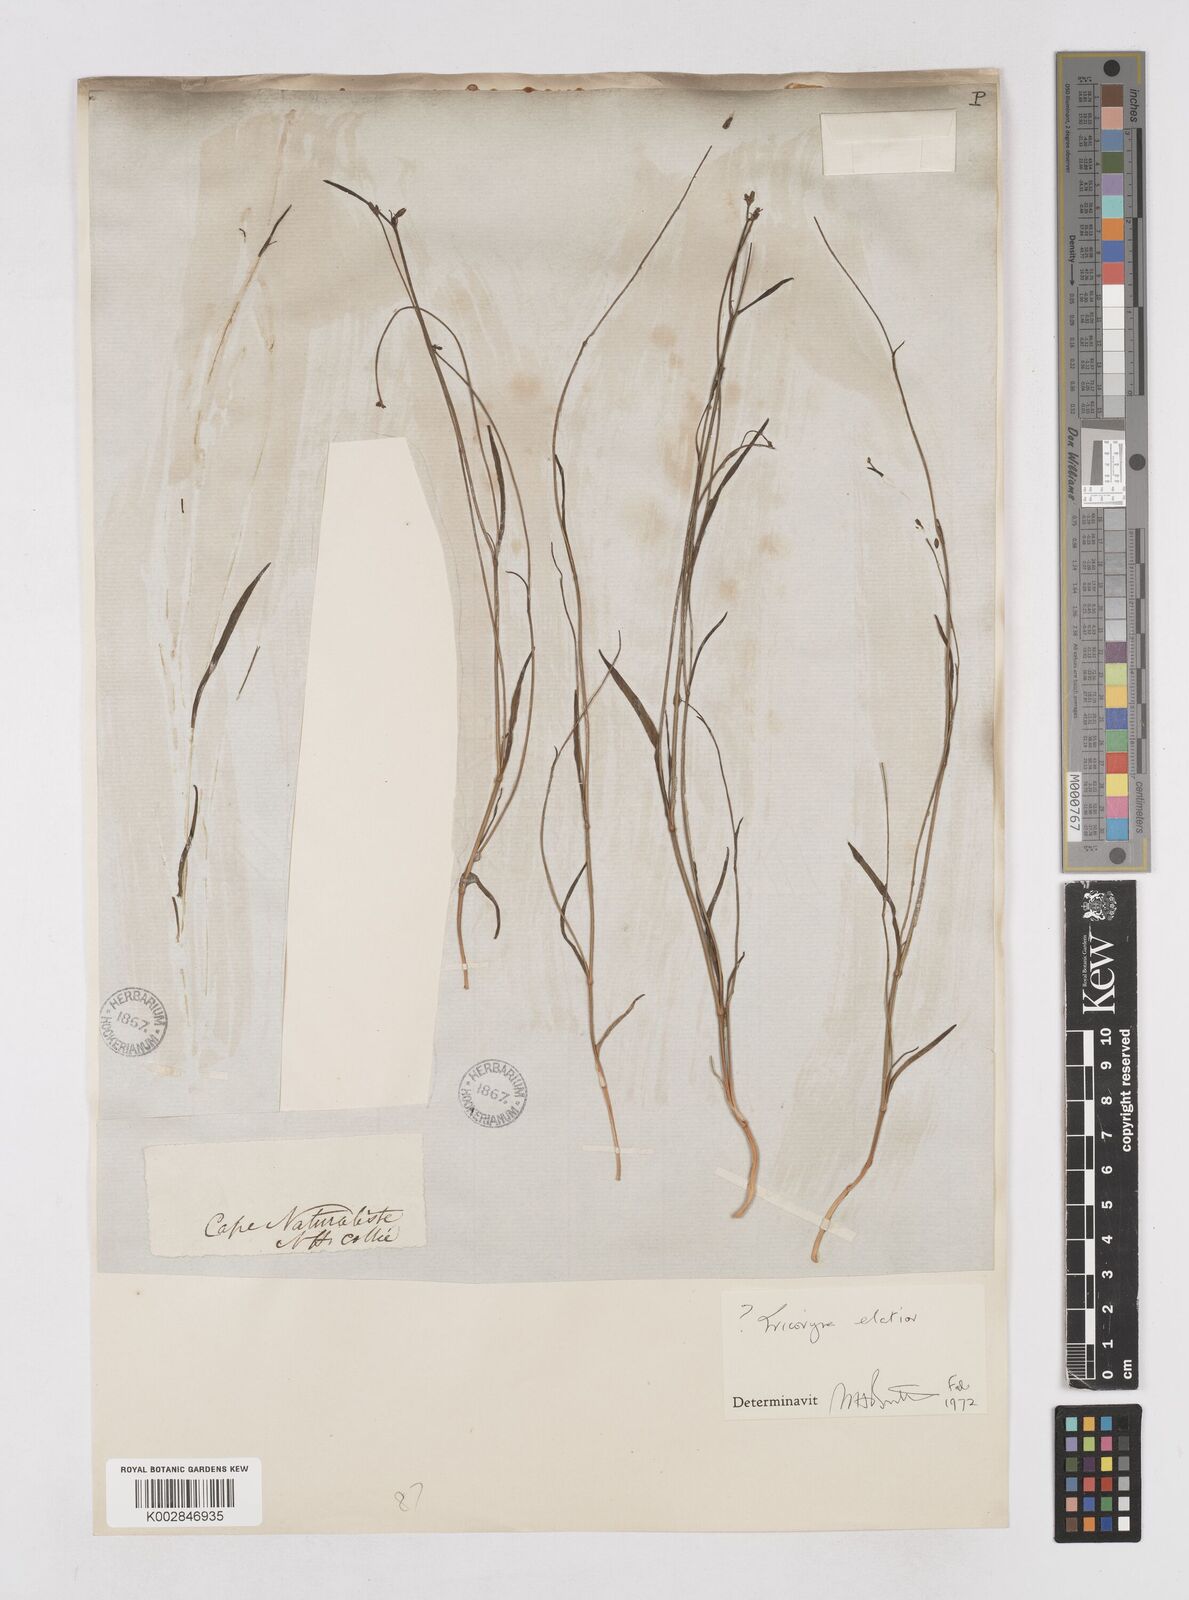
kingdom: Plantae
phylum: Tracheophyta
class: Liliopsida
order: Asparagales
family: Asphodelaceae
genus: Tricoryne
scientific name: Tricoryne elatior
